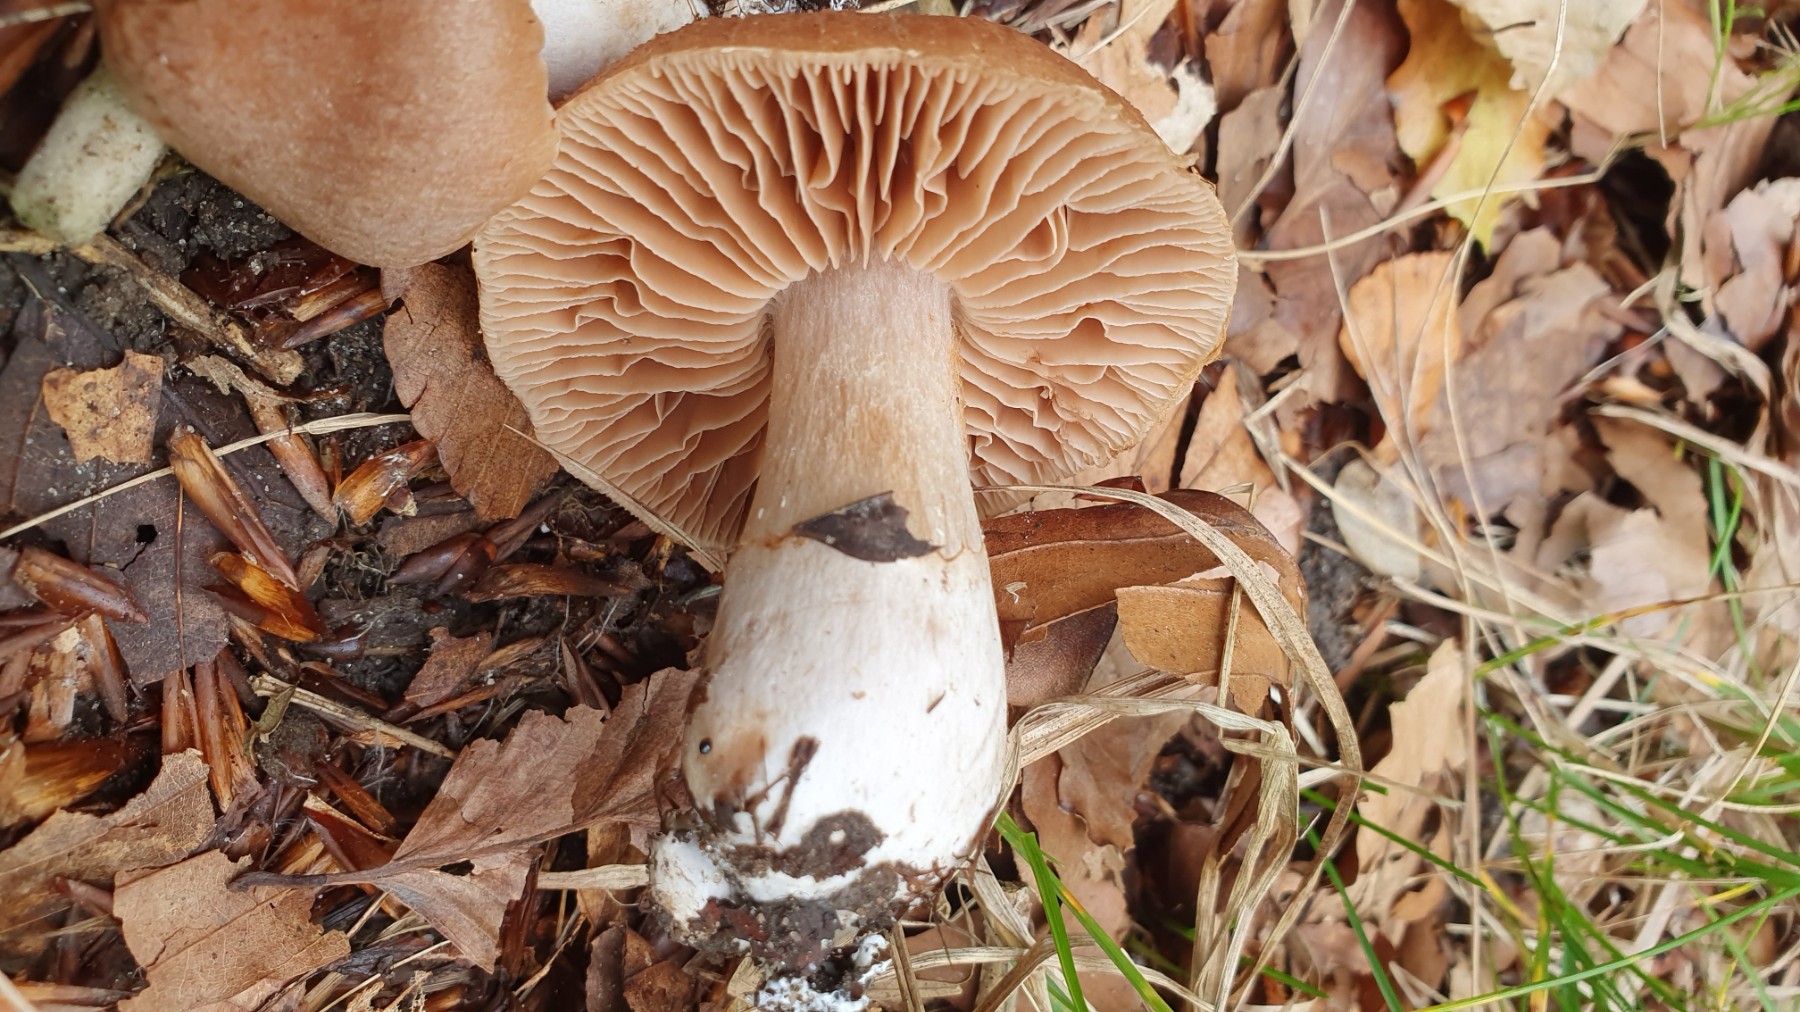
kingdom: Fungi
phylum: Basidiomycota
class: Agaricomycetes
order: Agaricales
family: Cortinariaceae
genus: Cortinarius
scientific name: Cortinarius
